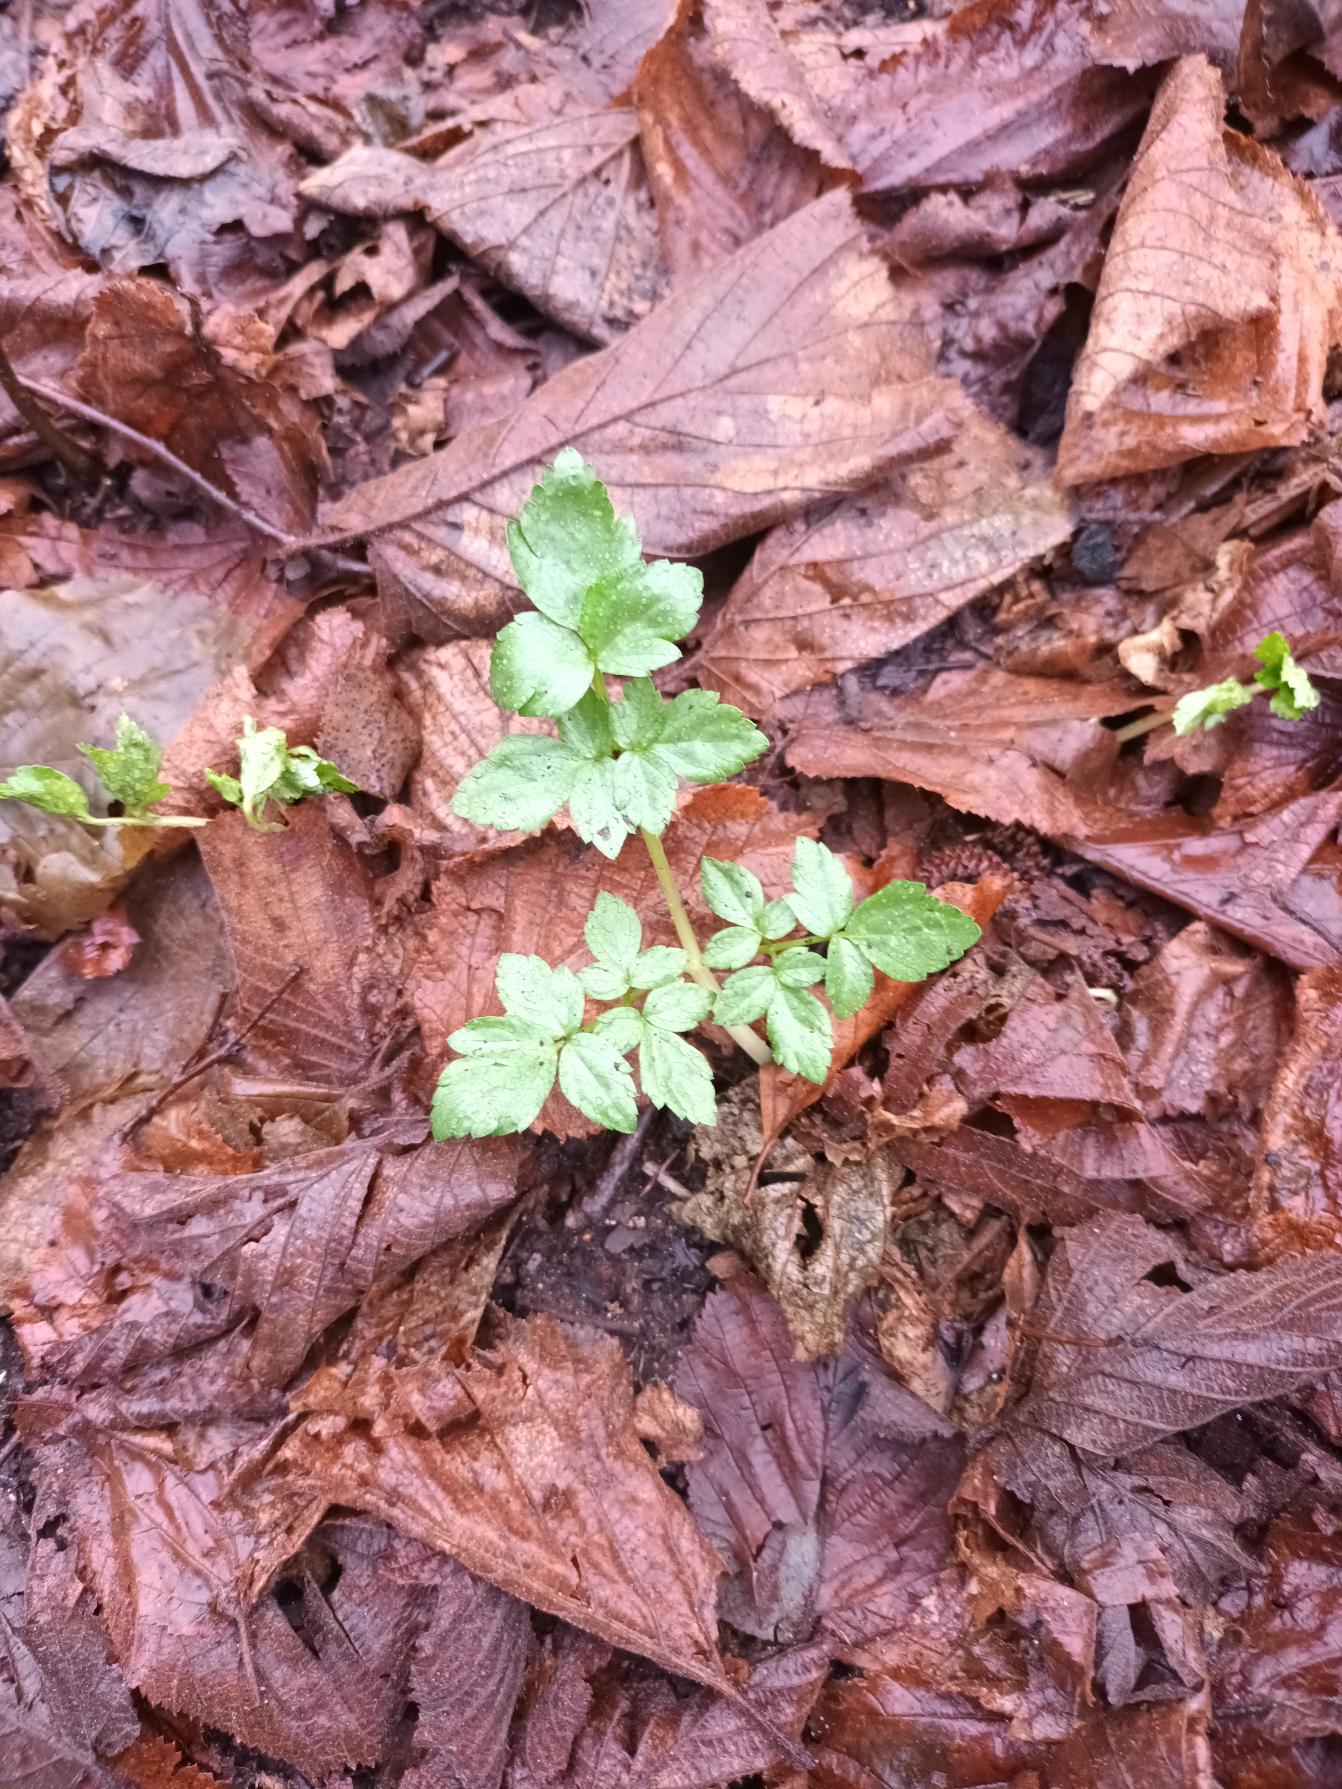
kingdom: Plantae
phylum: Tracheophyta
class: Magnoliopsida
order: Apiales
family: Apiaceae
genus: Smyrnium
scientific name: Smyrnium perfoliatum
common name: Lundgylden
